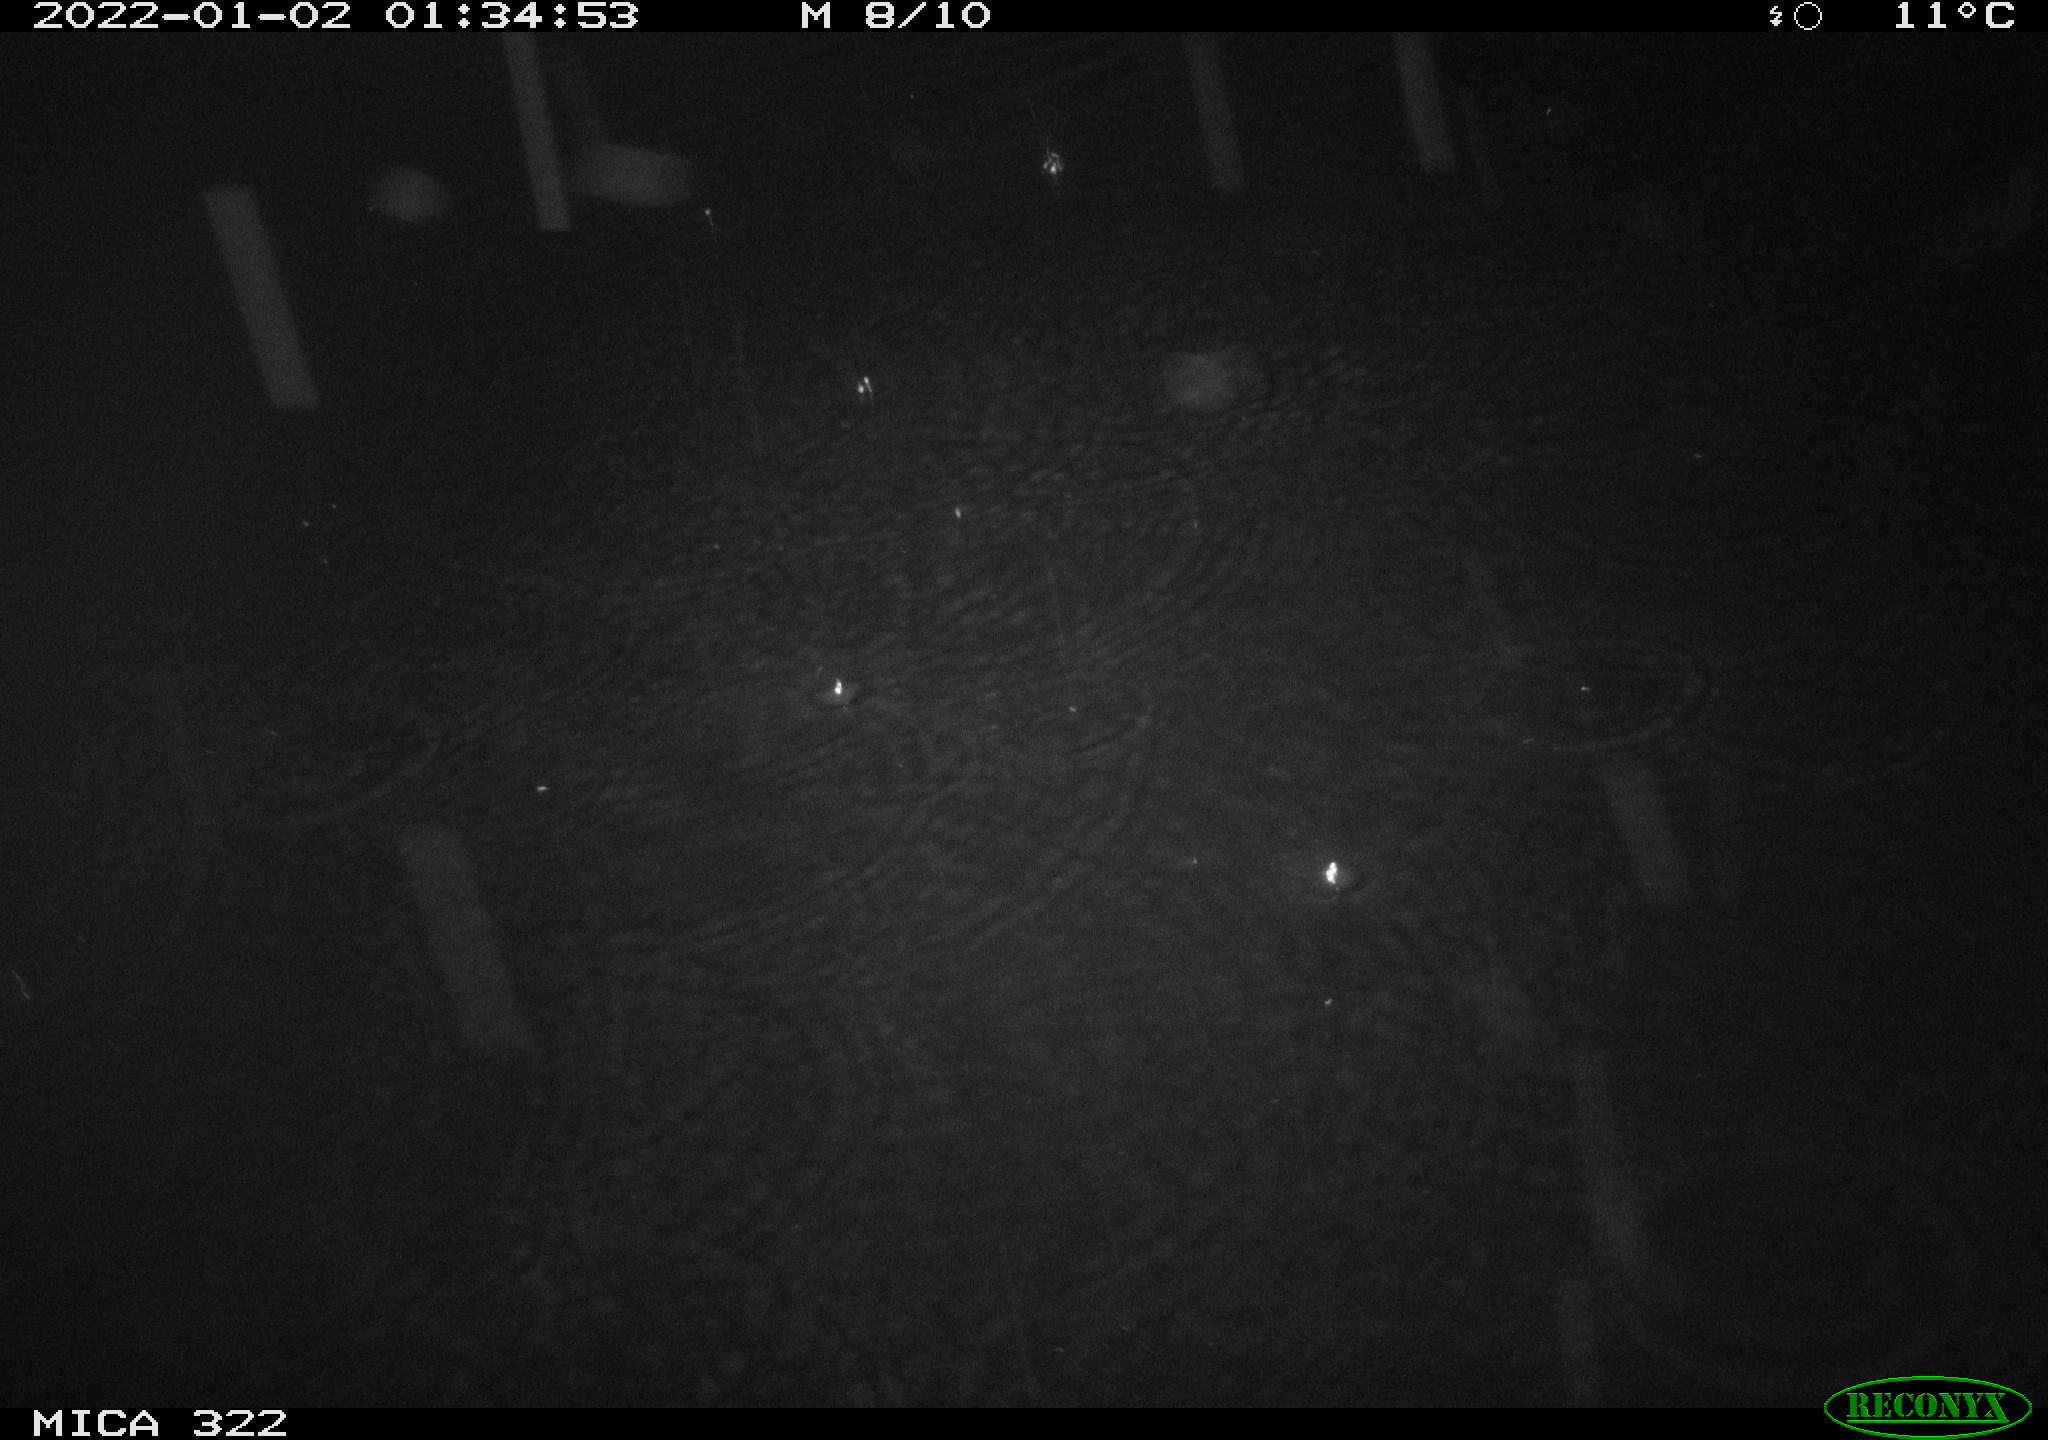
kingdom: Animalia
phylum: Chordata
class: Mammalia
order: Rodentia
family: Muridae
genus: Rattus
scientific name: Rattus norvegicus
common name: Brown rat
